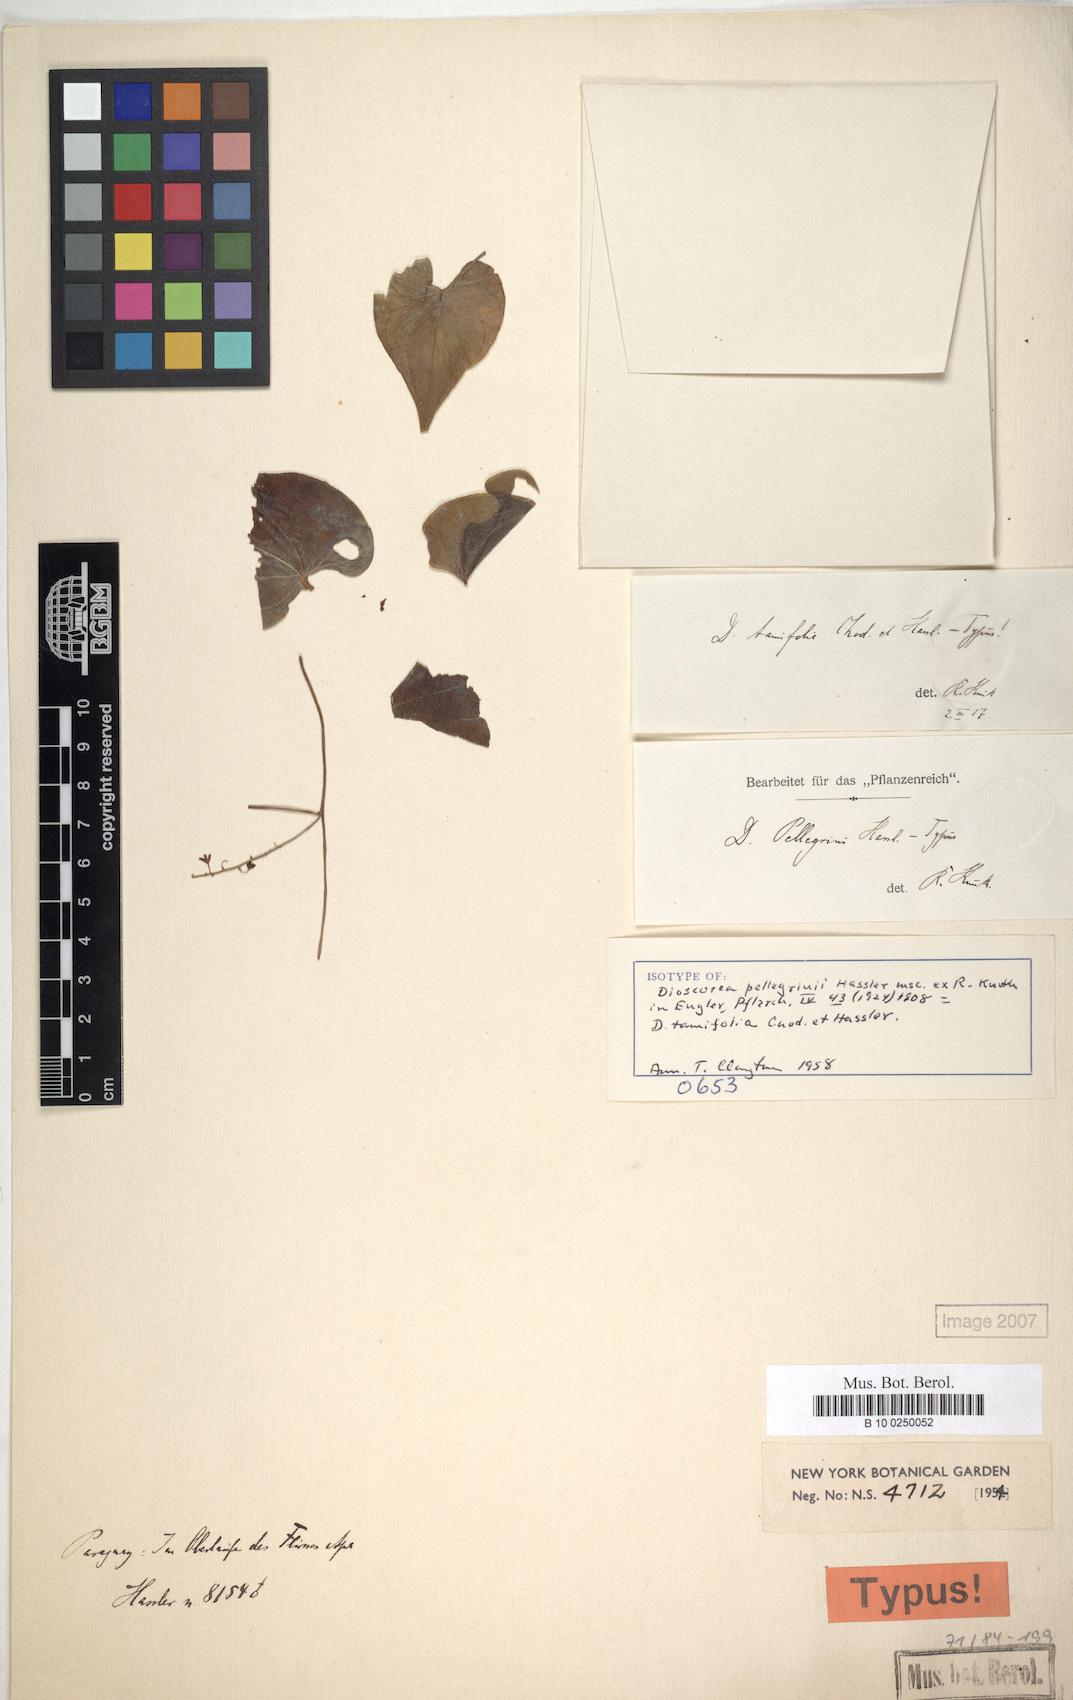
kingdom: Plantae
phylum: Tracheophyta
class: Liliopsida
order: Dioscoreales
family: Dioscoreaceae
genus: Dioscorea
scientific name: Dioscorea pilcomayensis
